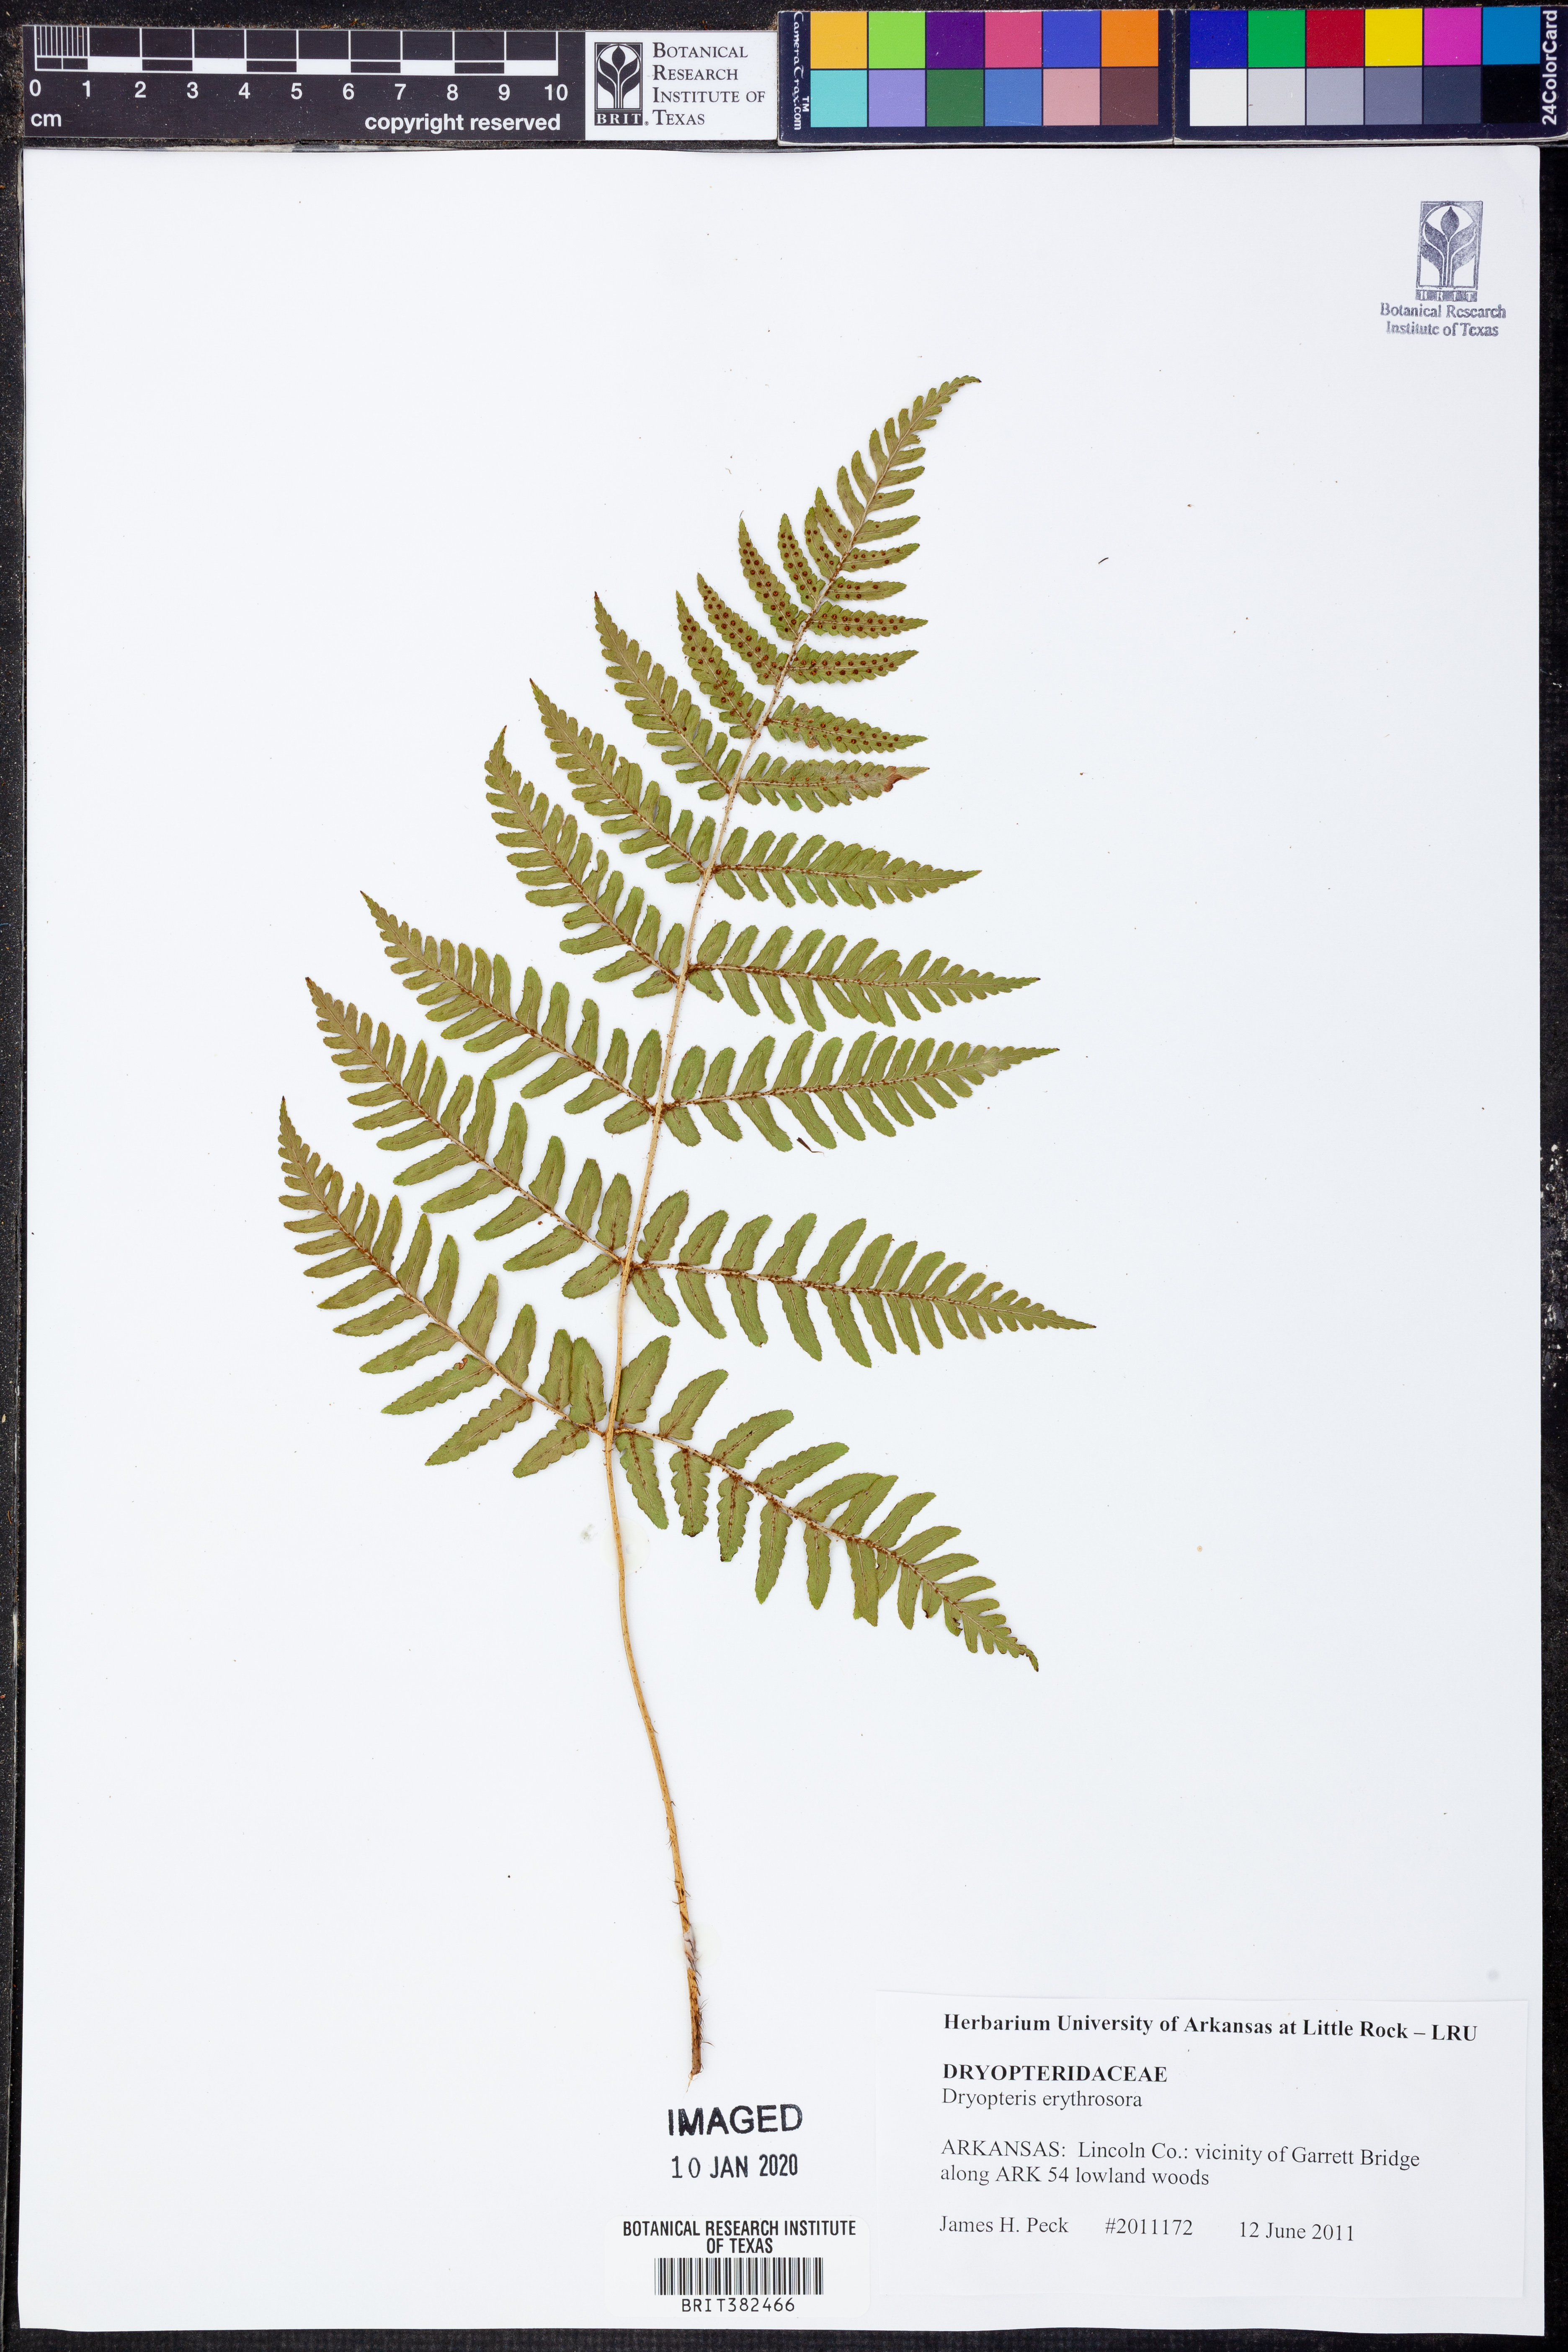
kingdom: Plantae
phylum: Tracheophyta
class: Polypodiopsida
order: Polypodiales
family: Dryopteridaceae
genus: Dryopteris
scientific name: Dryopteris erythrosora
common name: Autumn fern
